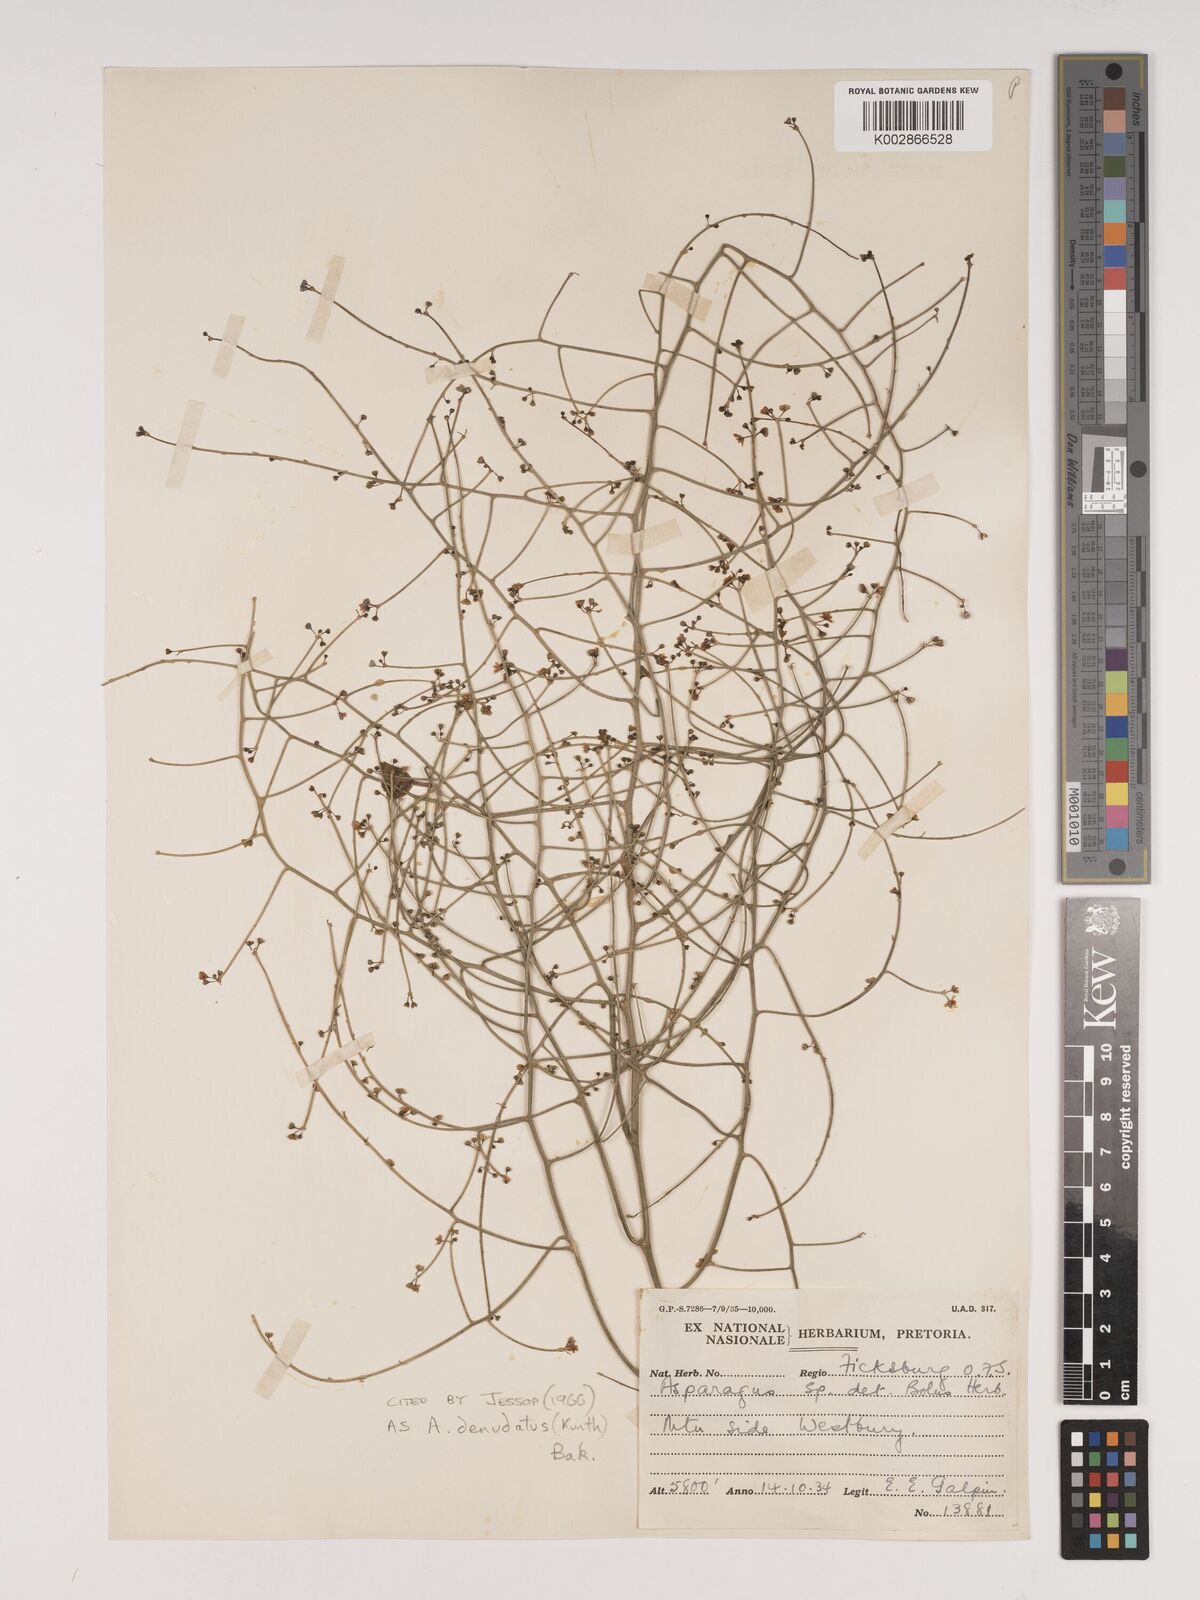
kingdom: Plantae
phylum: Tracheophyta
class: Liliopsida
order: Asparagales
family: Asparagaceae
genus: Asparagus
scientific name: Asparagus denudatus
